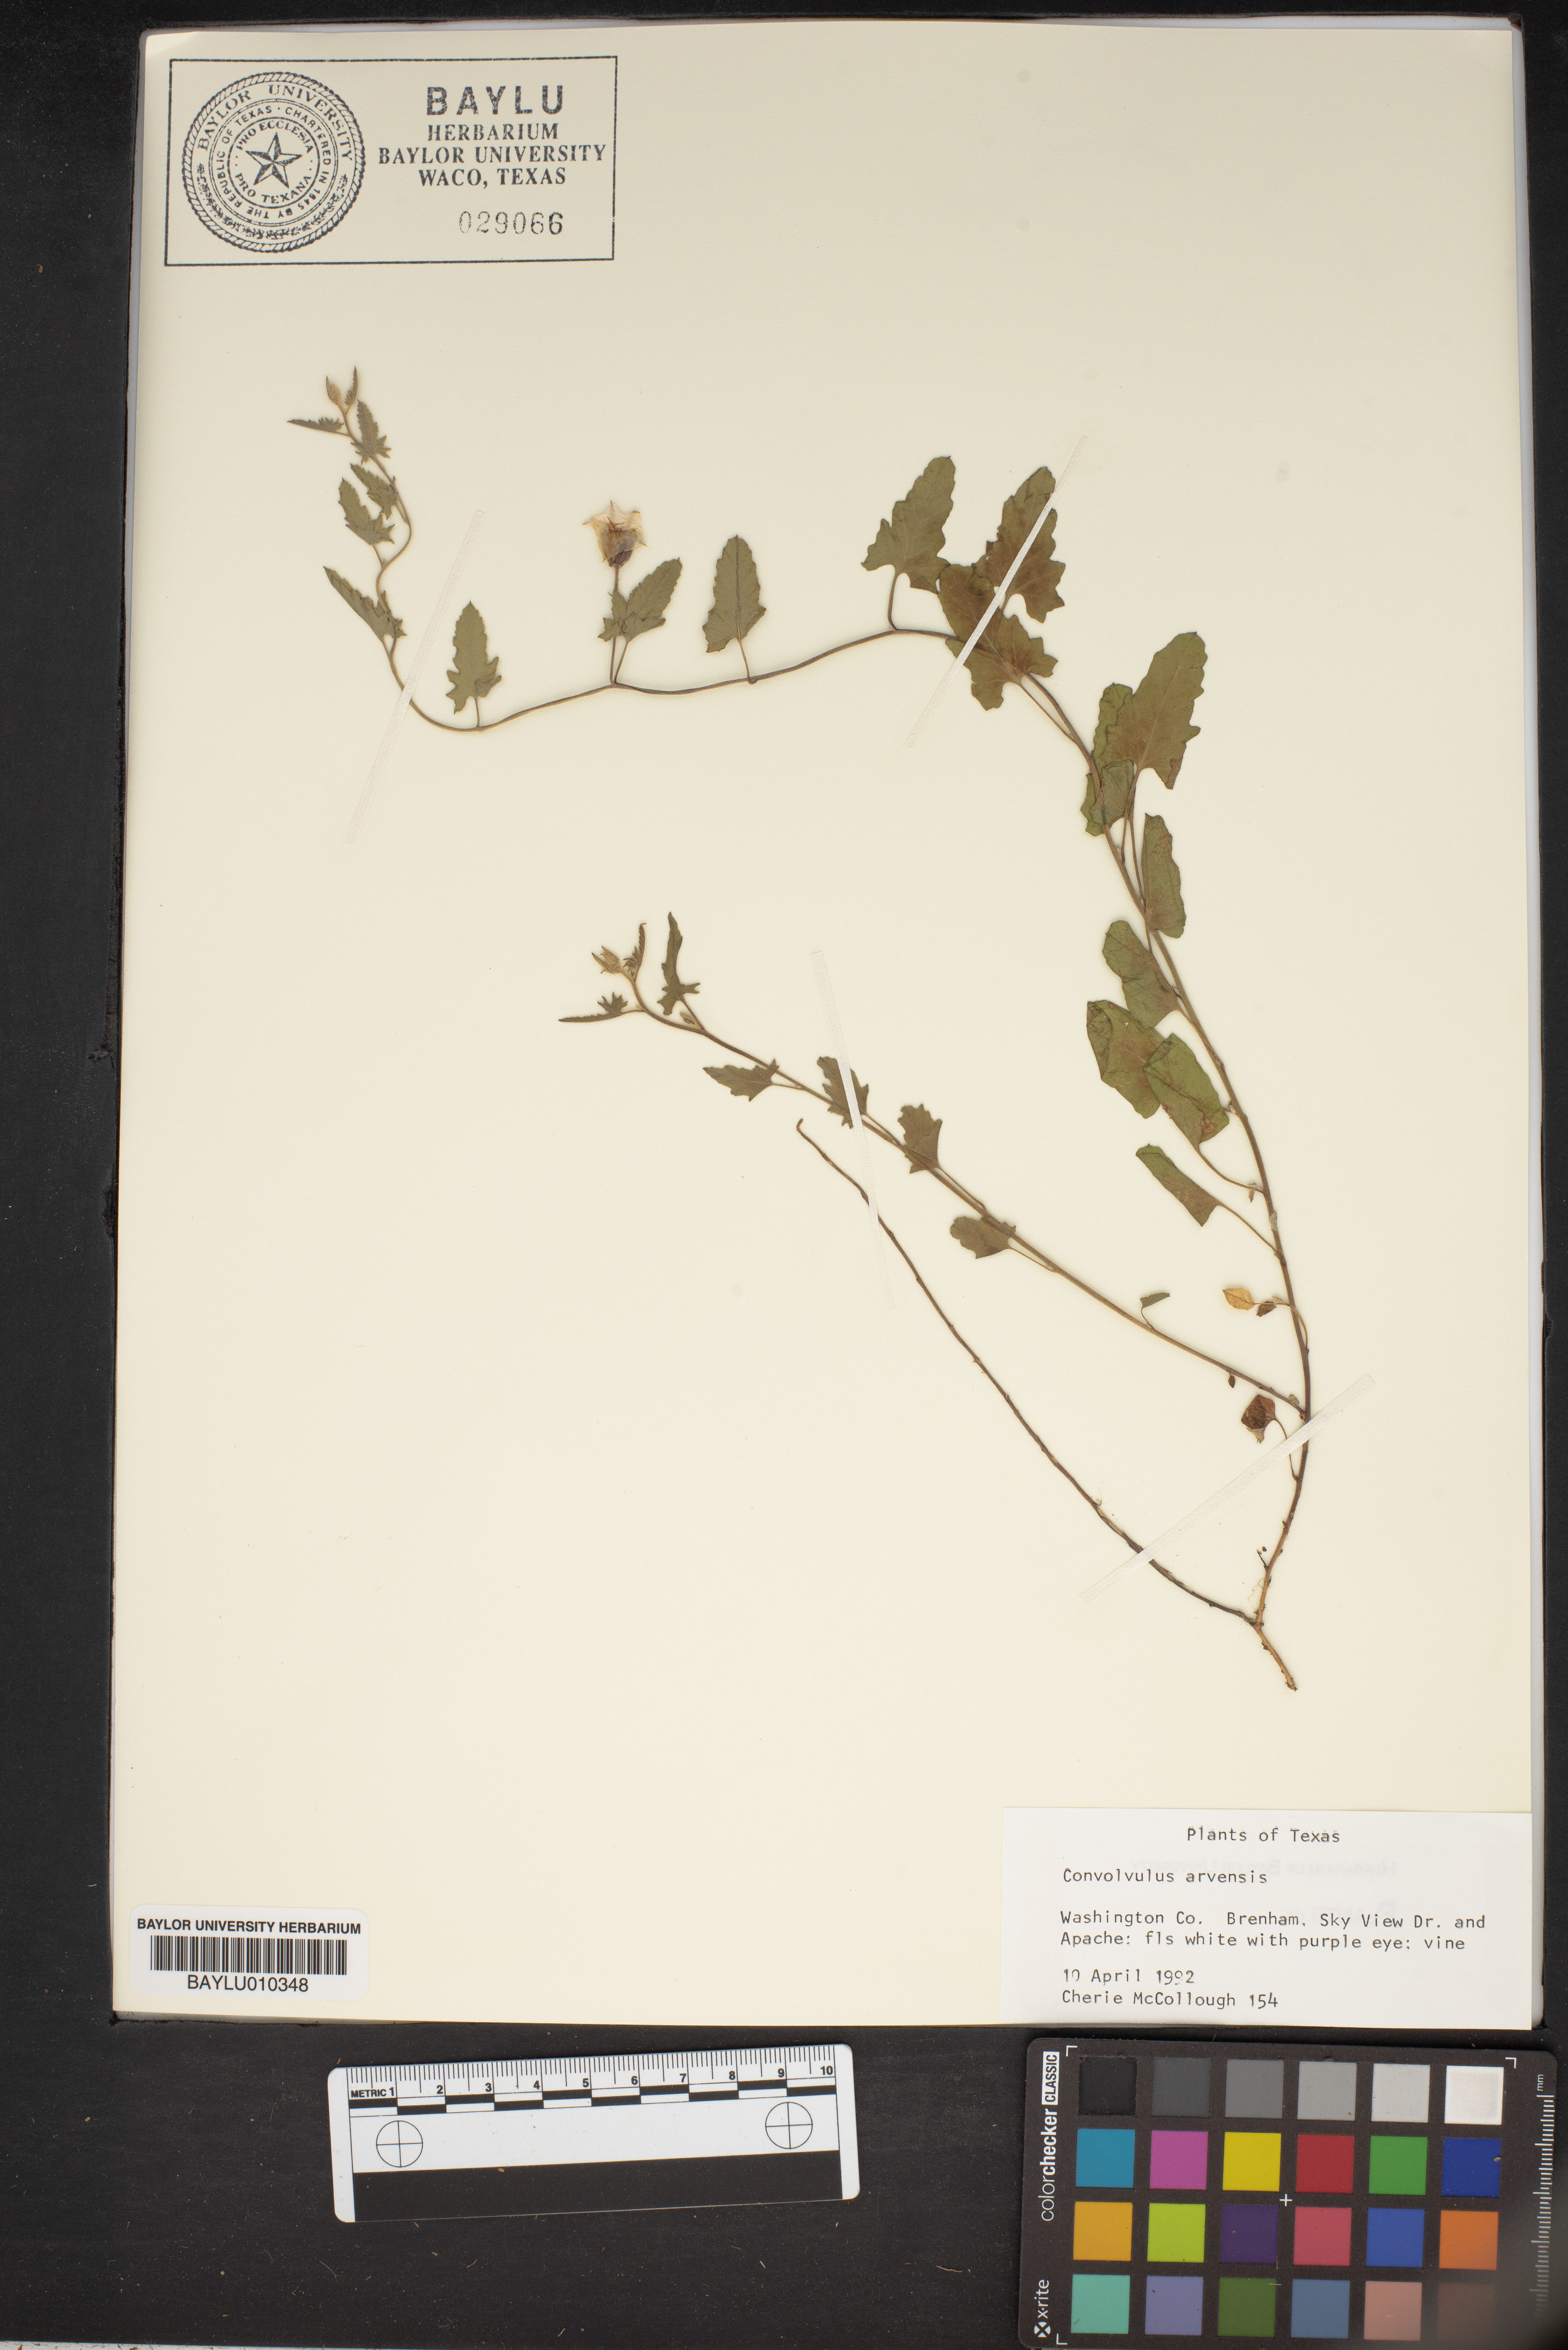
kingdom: Plantae
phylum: Tracheophyta
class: Magnoliopsida
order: Solanales
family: Convolvulaceae
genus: Convolvulus
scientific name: Convolvulus arvensis
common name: Field bindweed
